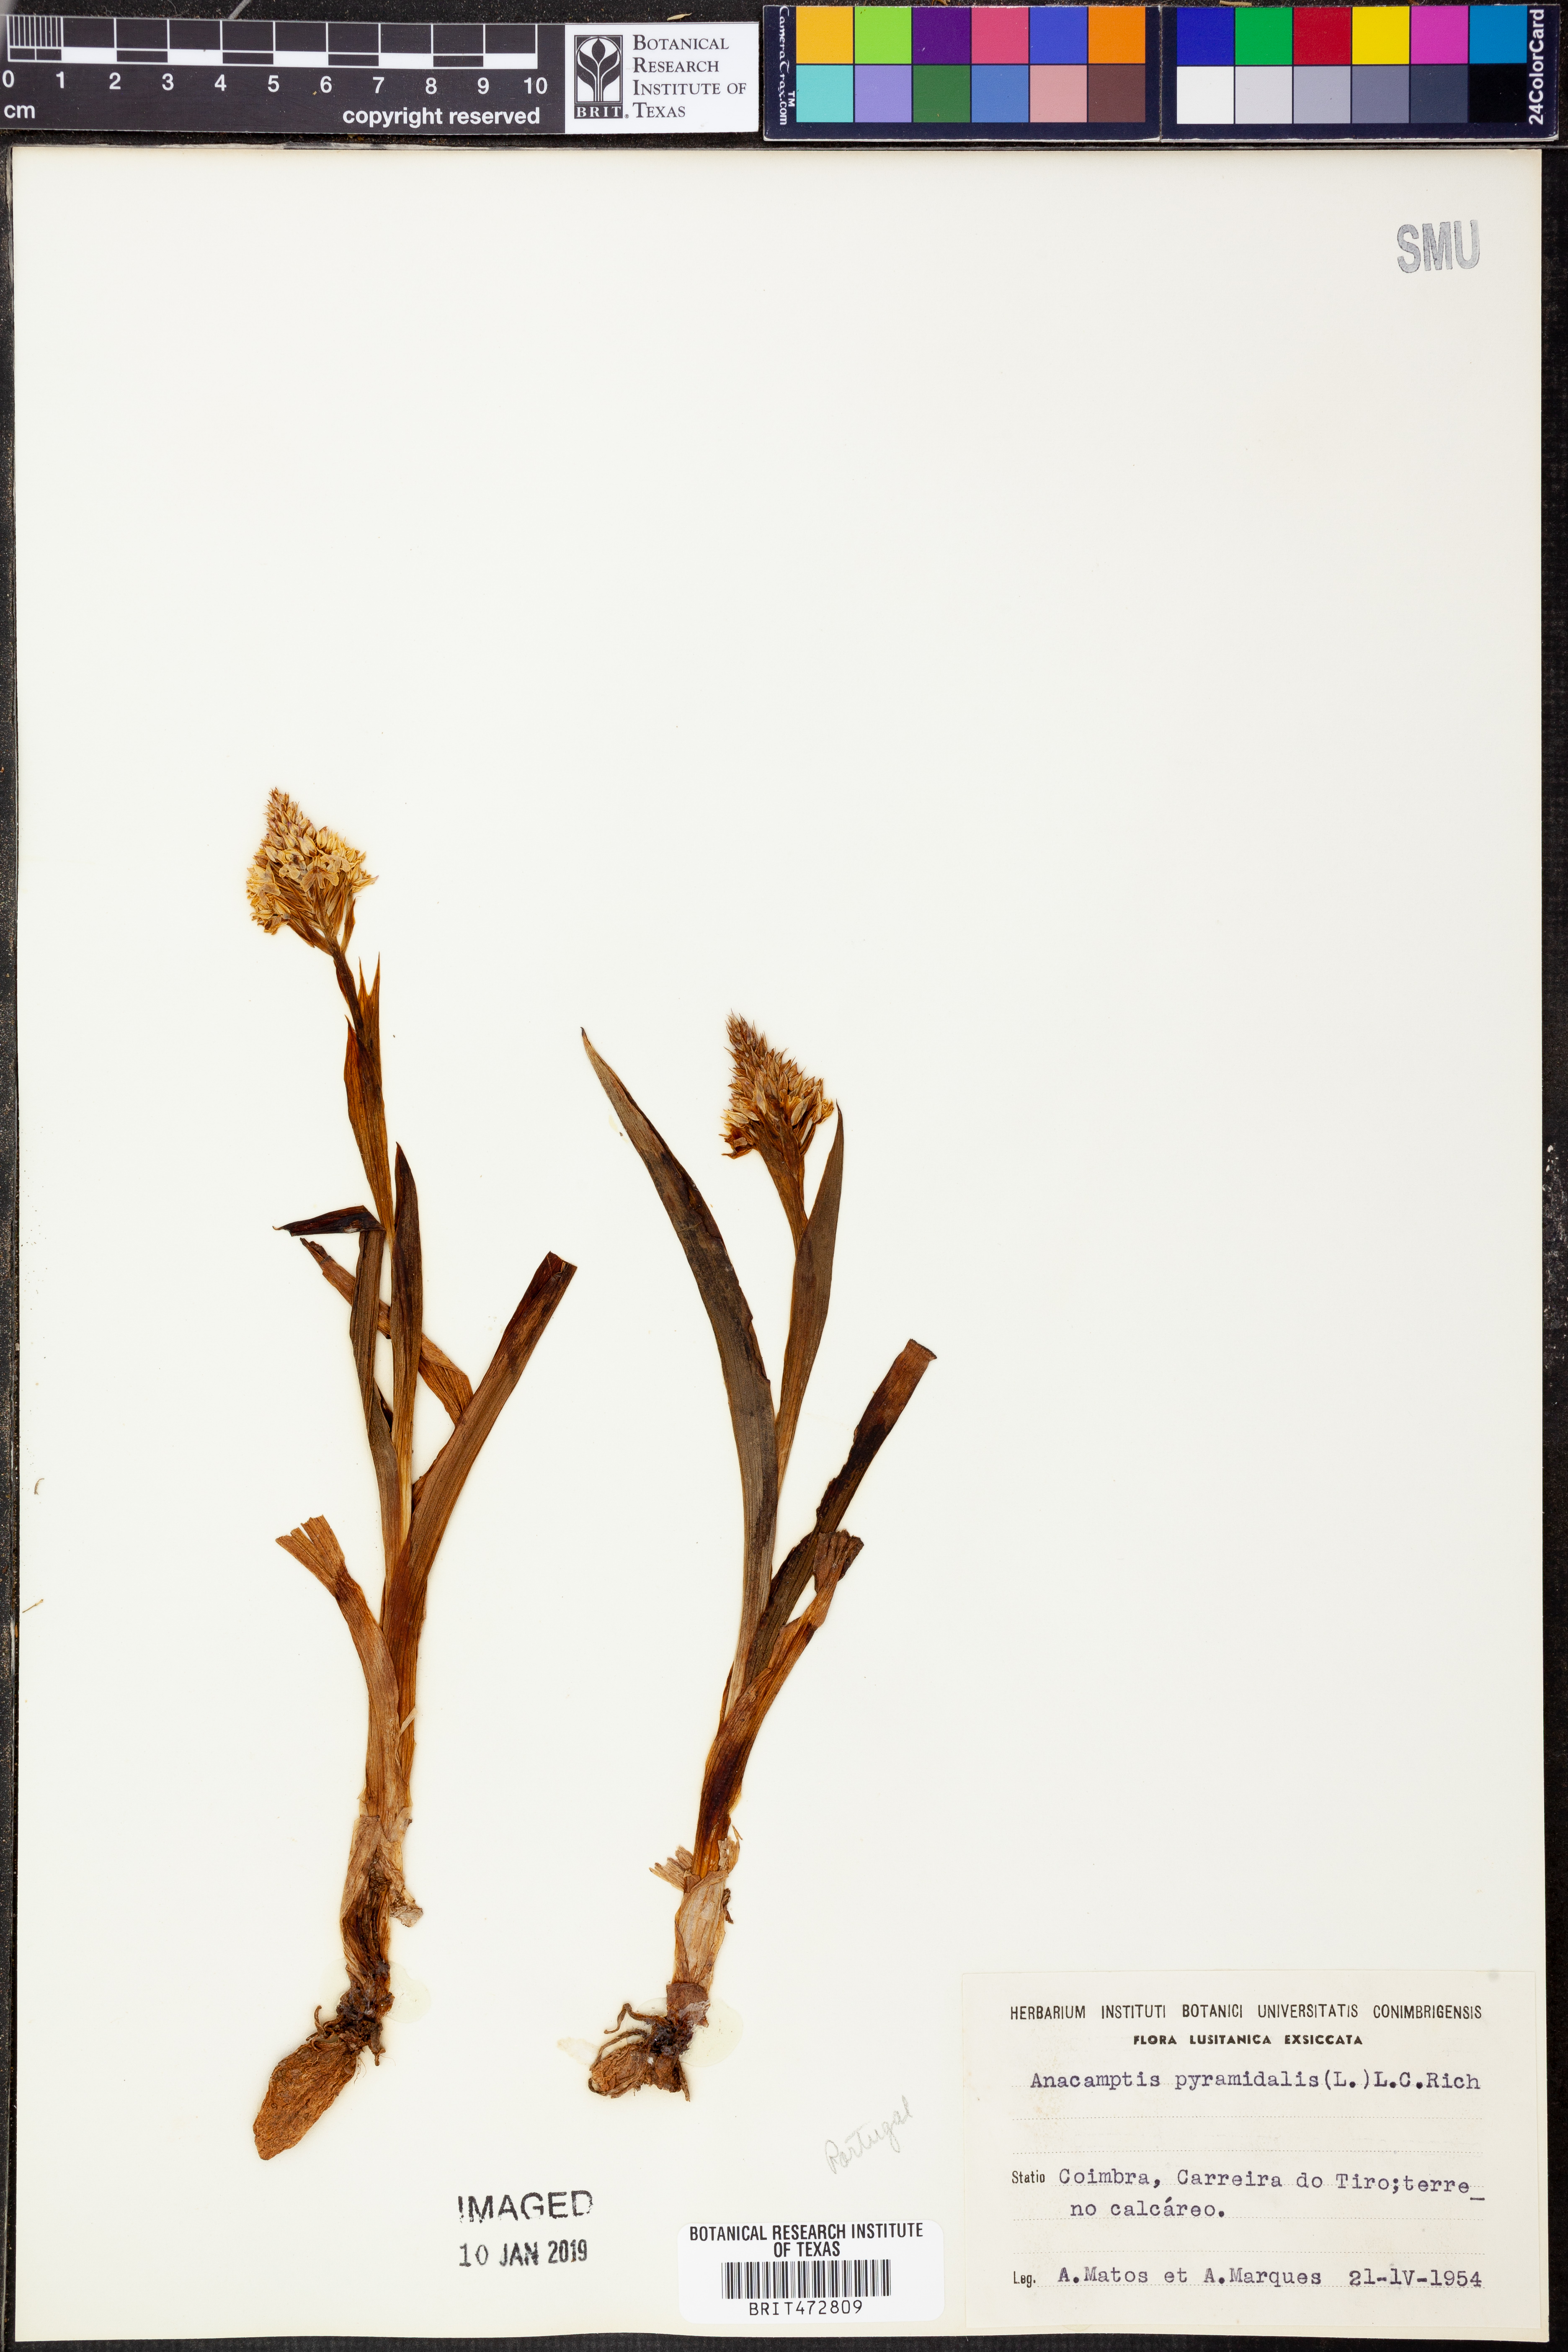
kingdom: Plantae
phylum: Tracheophyta
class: Liliopsida
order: Asparagales
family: Orchidaceae
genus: Anacamptis
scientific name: Anacamptis pyramidalis
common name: Pyramidal orchid
